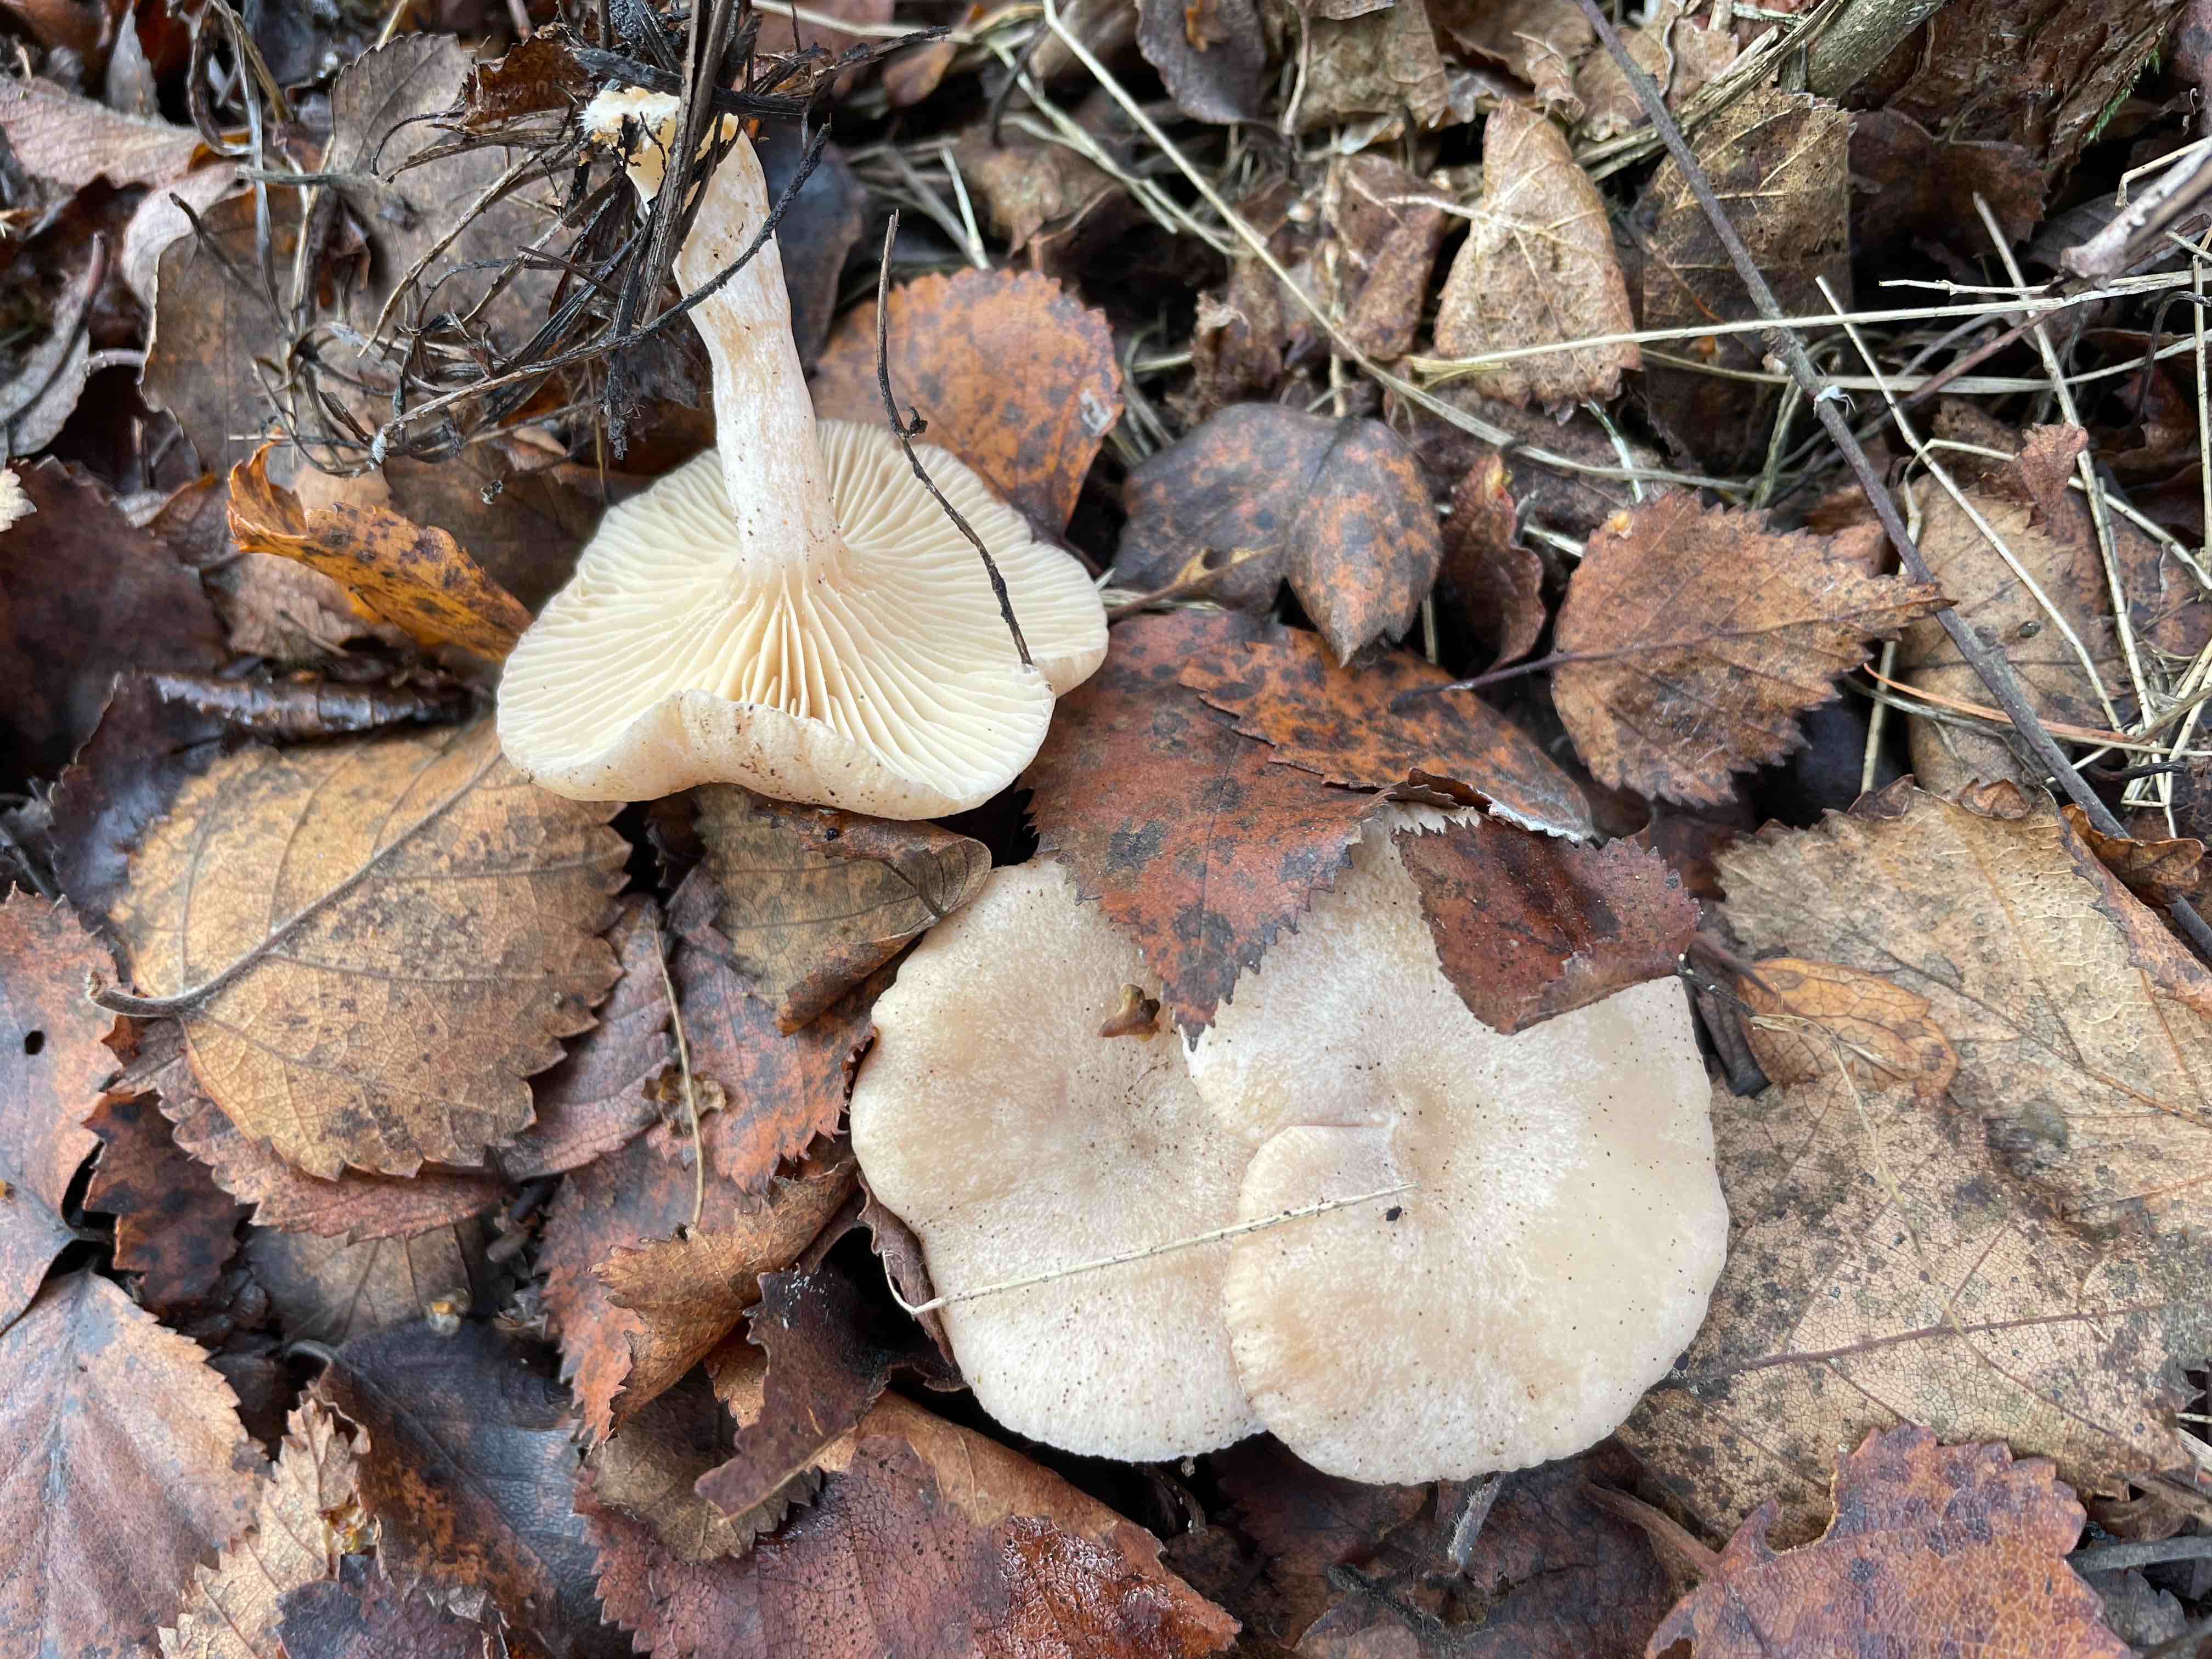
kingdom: Fungi
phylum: Basidiomycota
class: Agaricomycetes
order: Russulales
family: Russulaceae
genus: Lactarius
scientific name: Lactarius glyciosmus
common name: kokos-mælkehat
